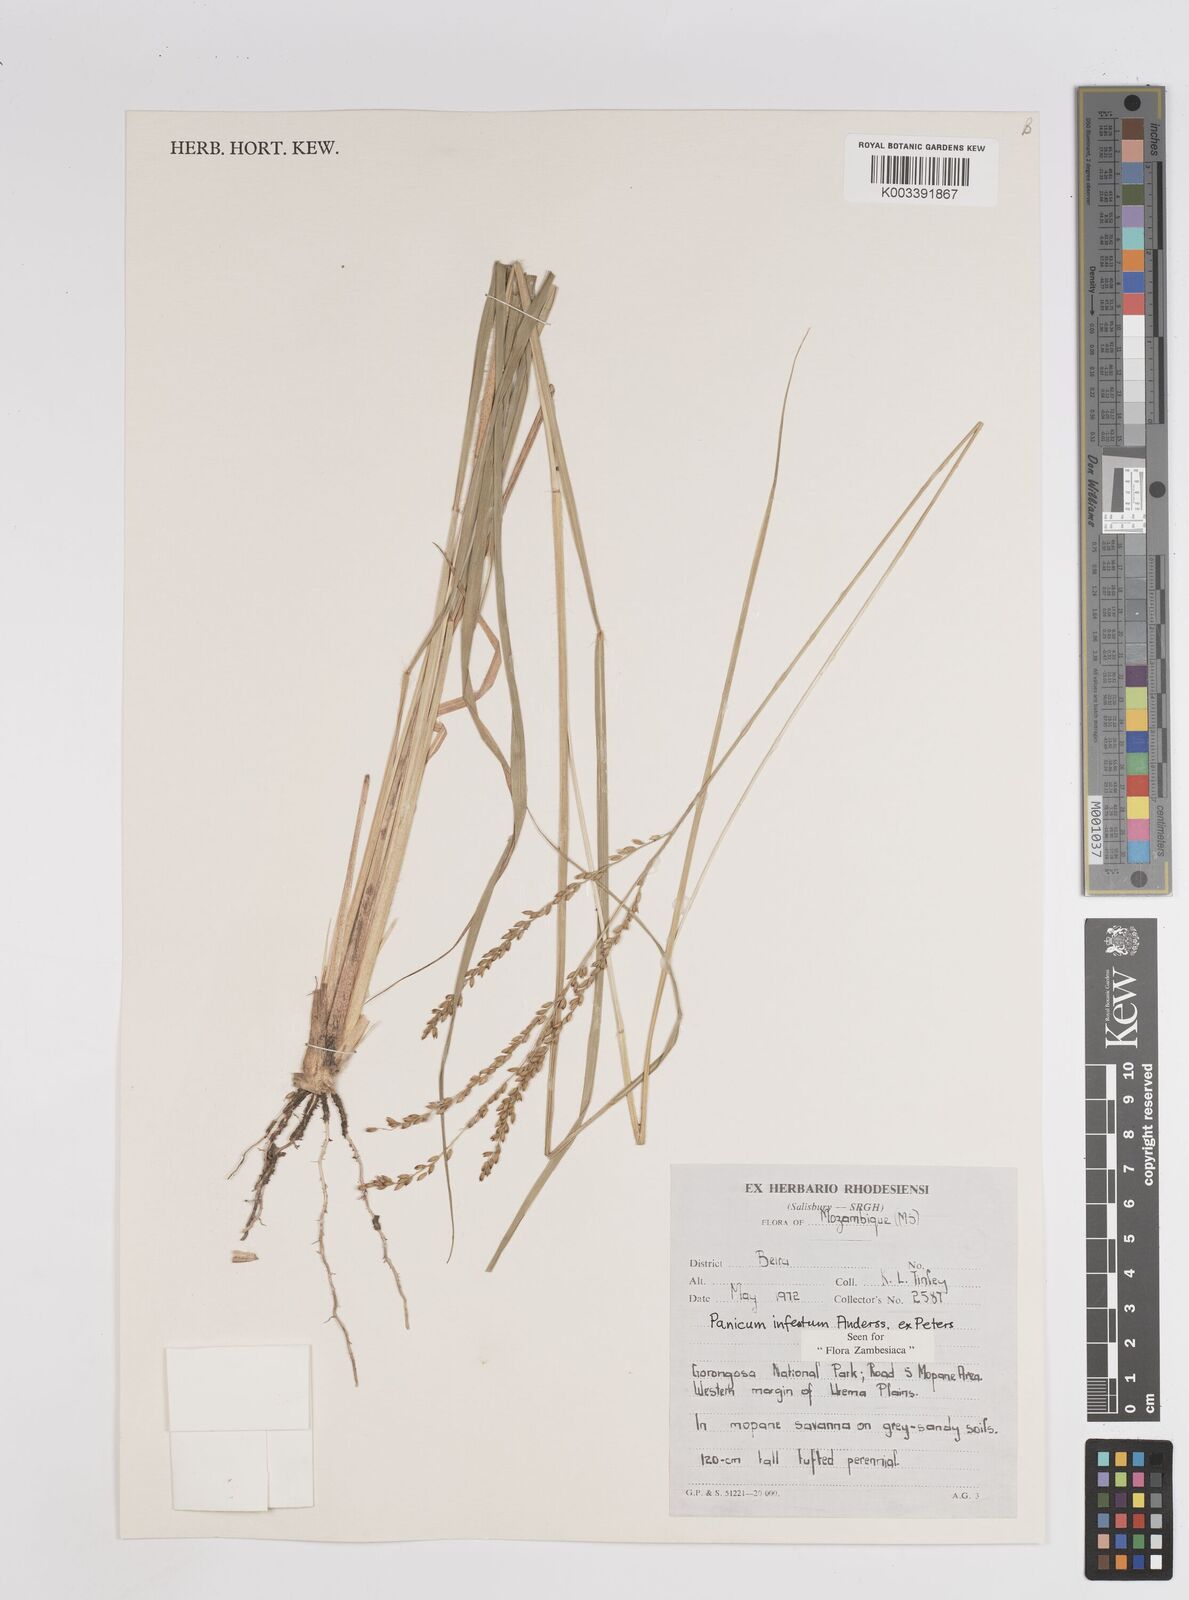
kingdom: Plantae
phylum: Tracheophyta
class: Liliopsida
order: Poales
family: Poaceae
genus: Megathyrsus
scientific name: Megathyrsus infestus
